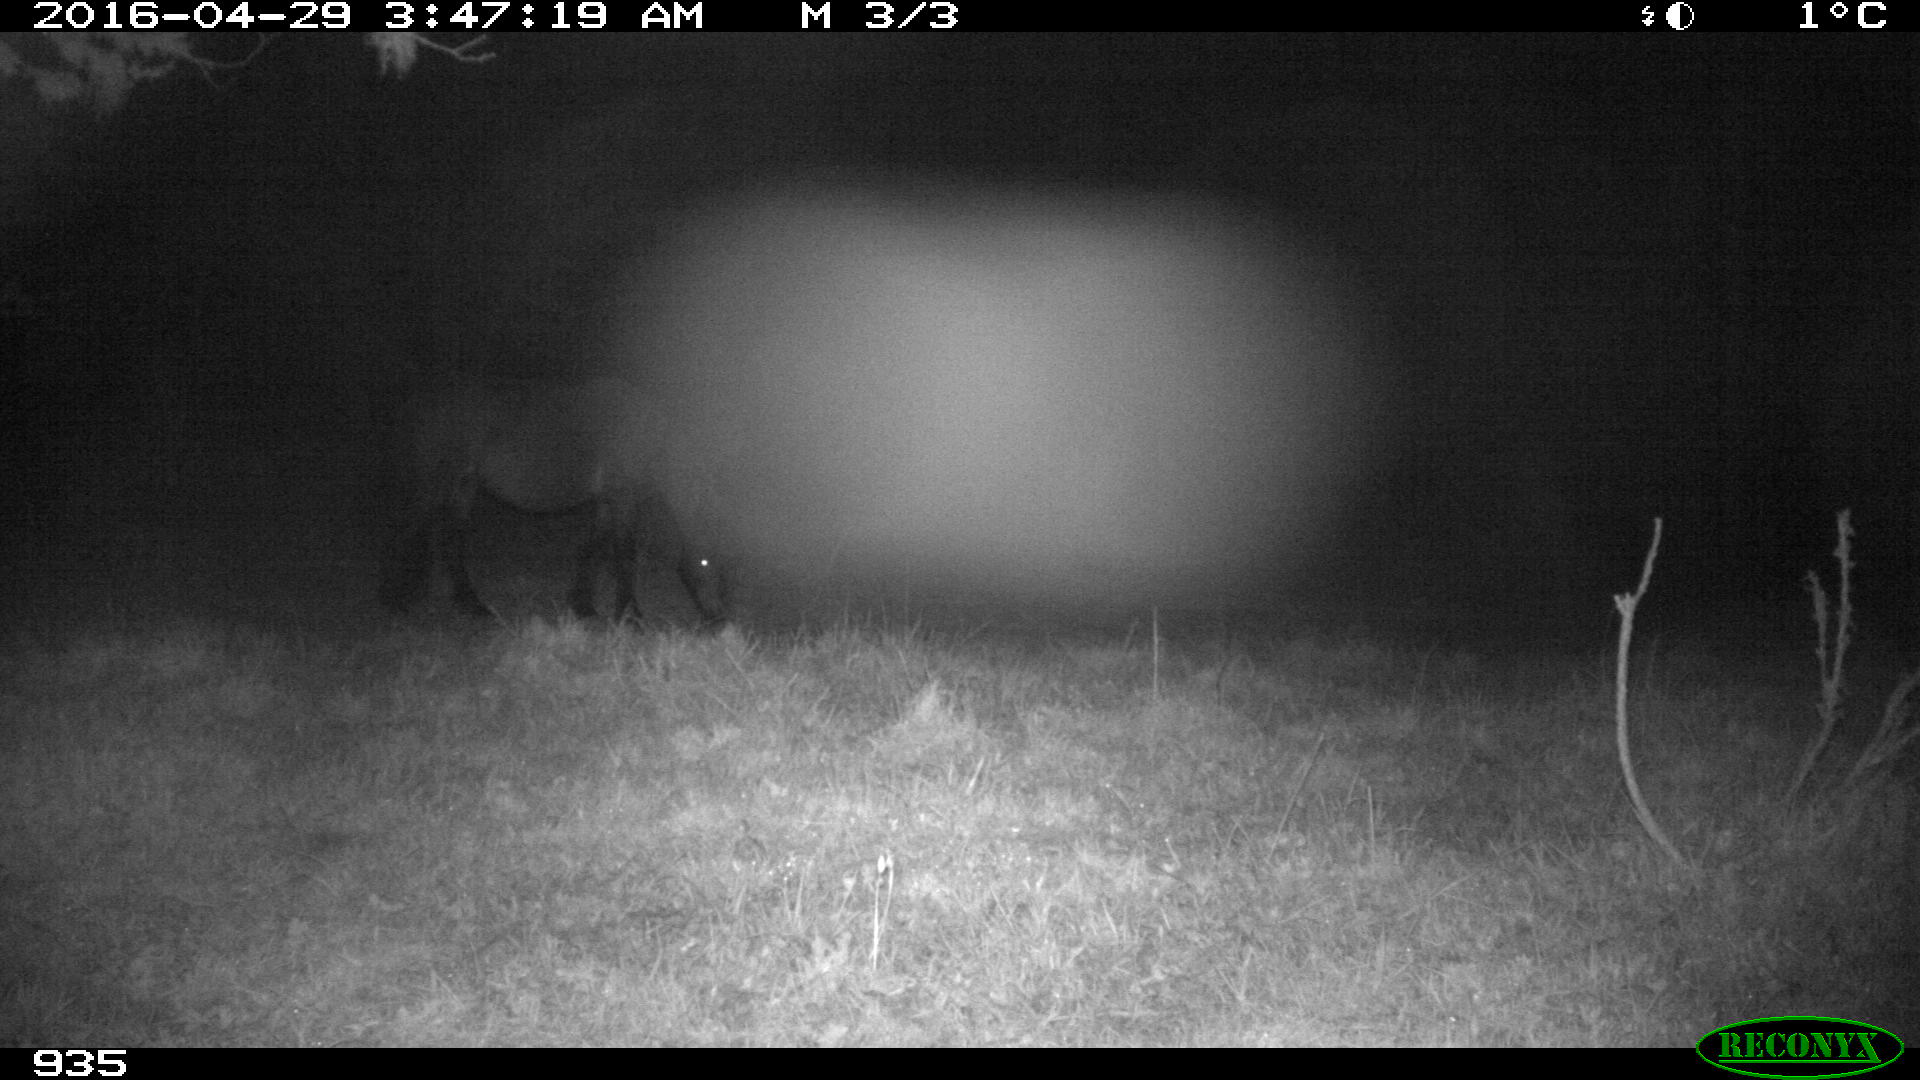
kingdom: Animalia
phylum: Chordata
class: Mammalia
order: Perissodactyla
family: Equidae
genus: Equus
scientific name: Equus caballus
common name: Horse
